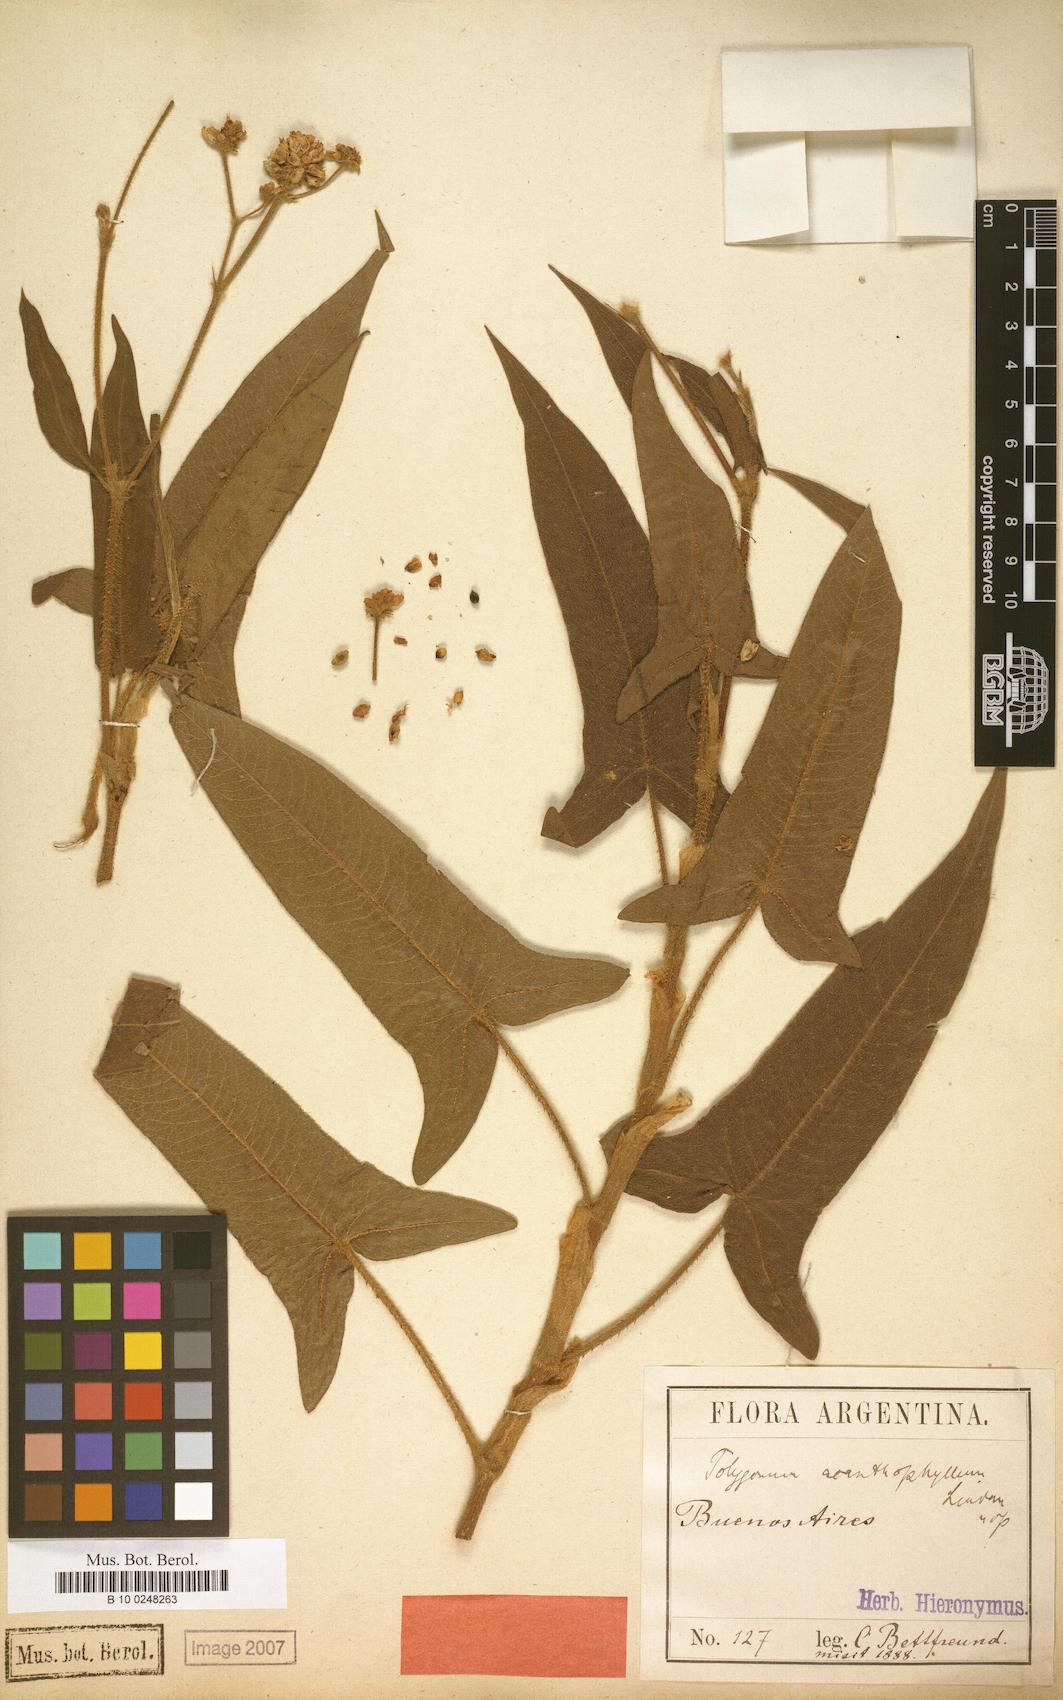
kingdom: Plantae
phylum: Tracheophyta
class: Magnoliopsida
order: Caryophyllales
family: Polygonaceae
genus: Persicaria
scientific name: Persicaria stelligera
